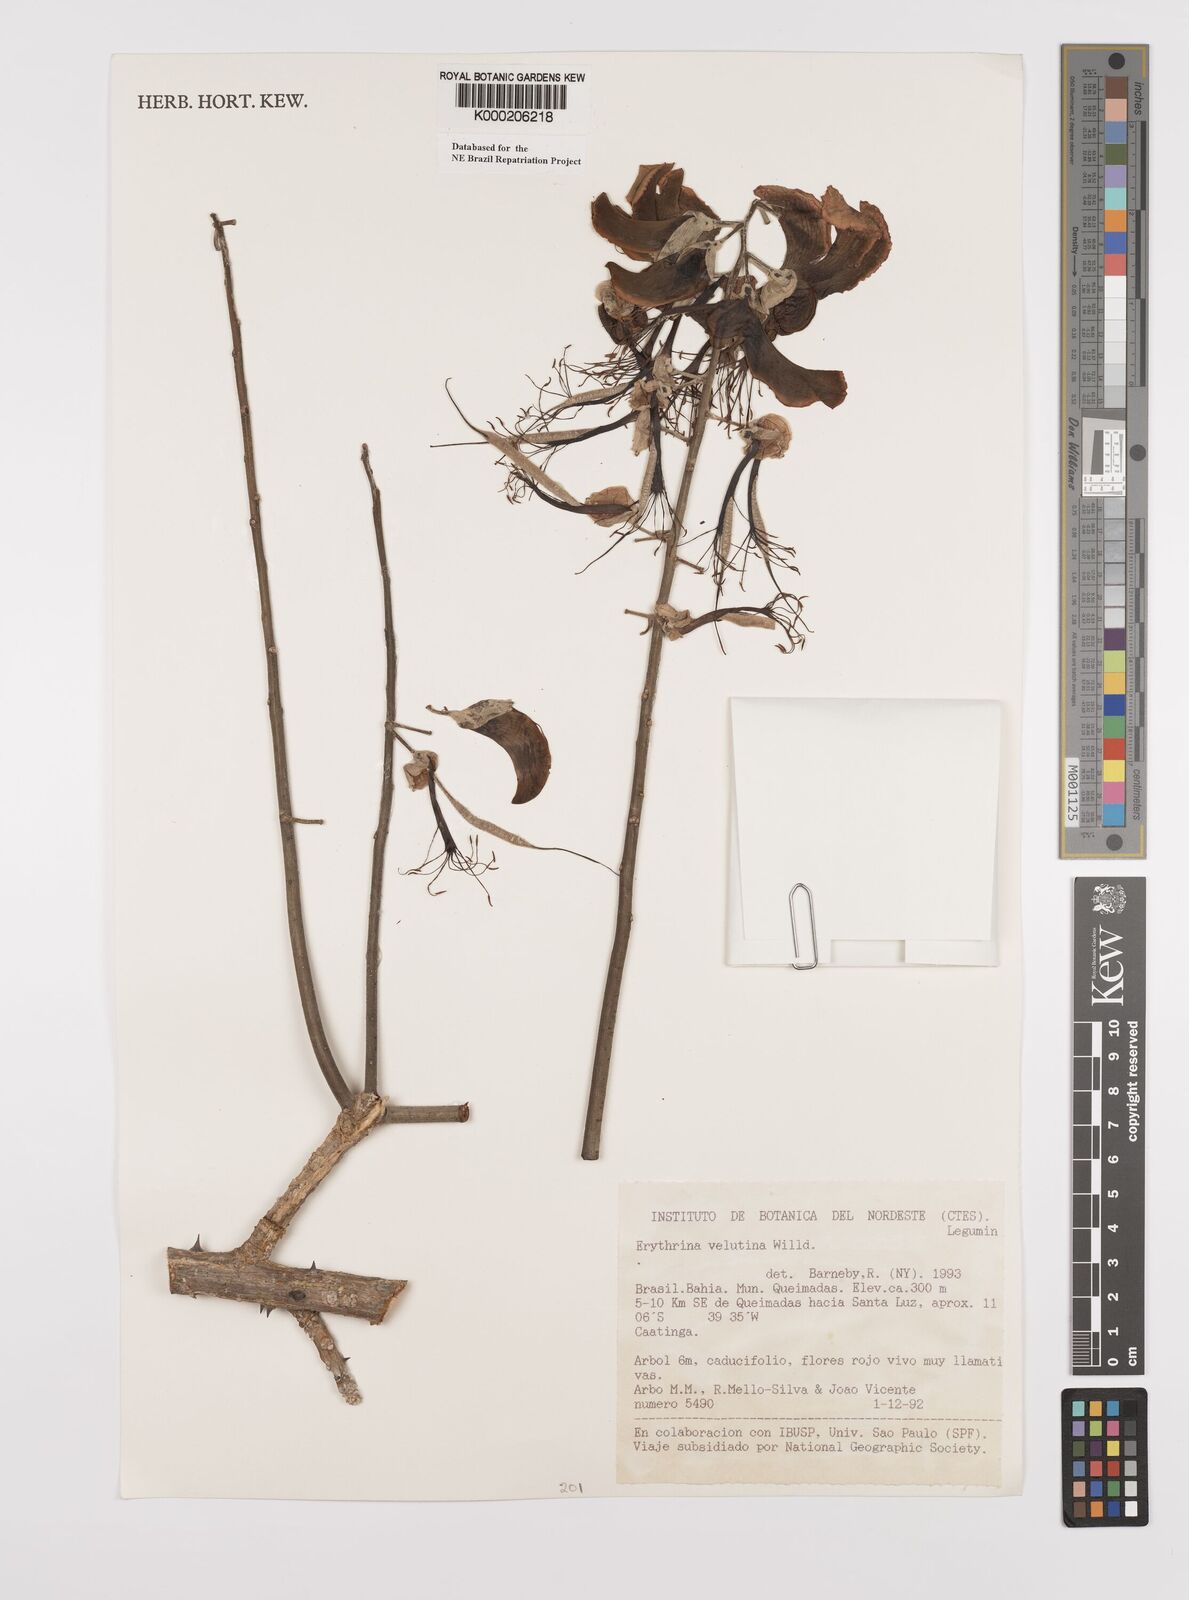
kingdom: Plantae
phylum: Tracheophyta
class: Magnoliopsida
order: Fabales
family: Fabaceae
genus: Erythrina
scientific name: Erythrina velutina
